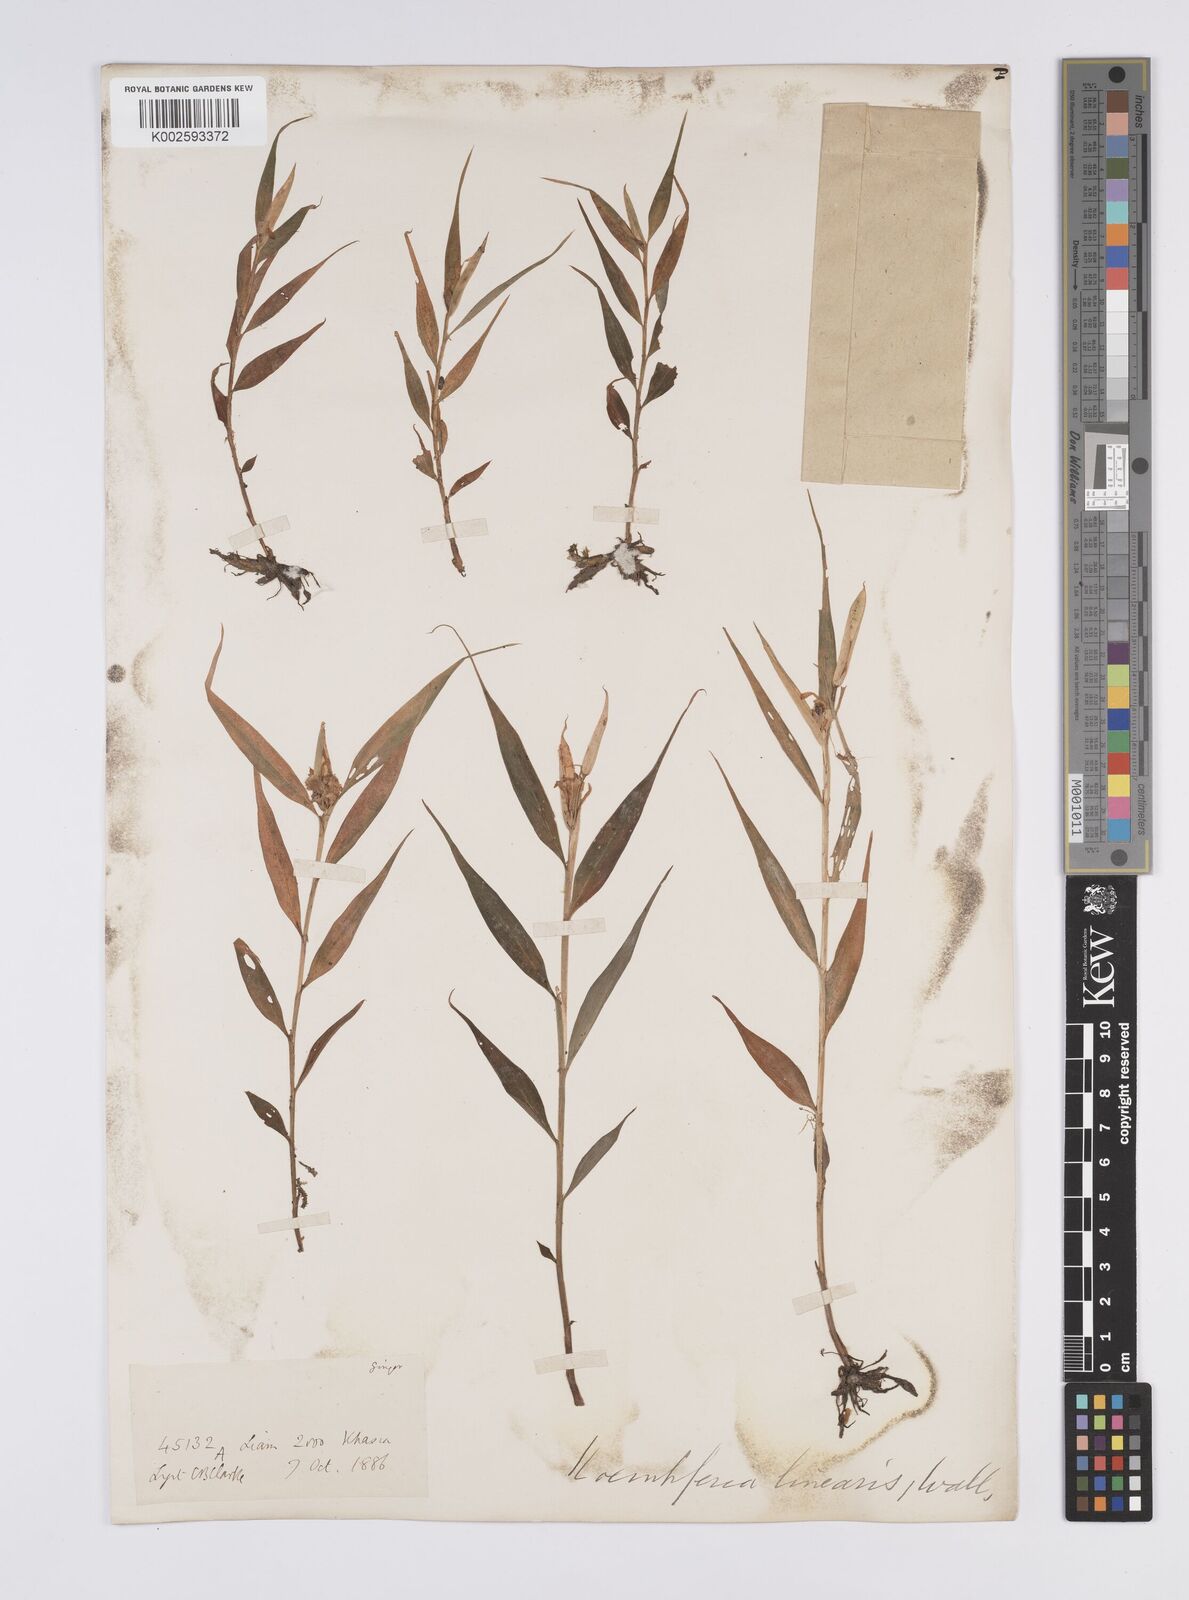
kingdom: Plantae
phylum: Tracheophyta
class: Liliopsida
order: Zingiberales
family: Zingiberaceae
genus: Caulokaempferia
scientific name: Caulokaempferia linearis
